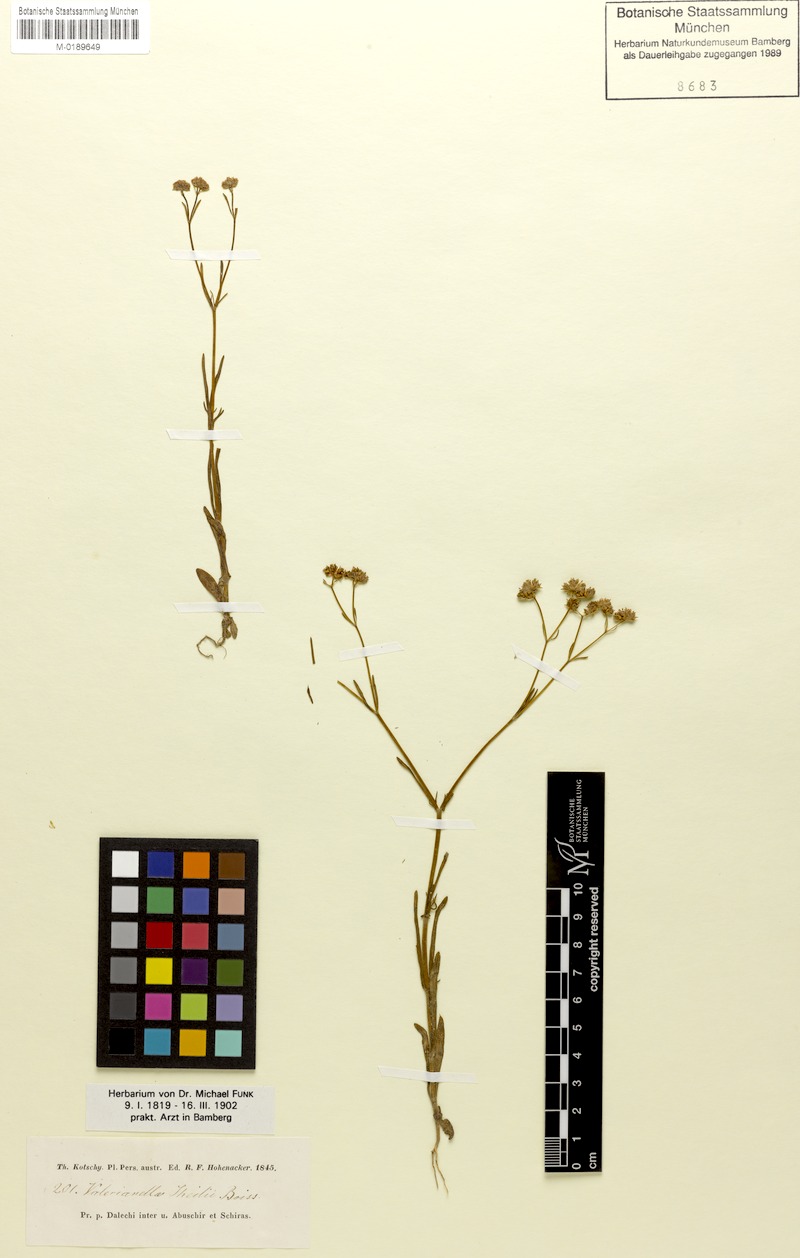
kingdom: Plantae
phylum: Tracheophyta
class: Magnoliopsida
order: Dipsacales
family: Caprifoliaceae
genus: Valerianella
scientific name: Valerianella pumila
